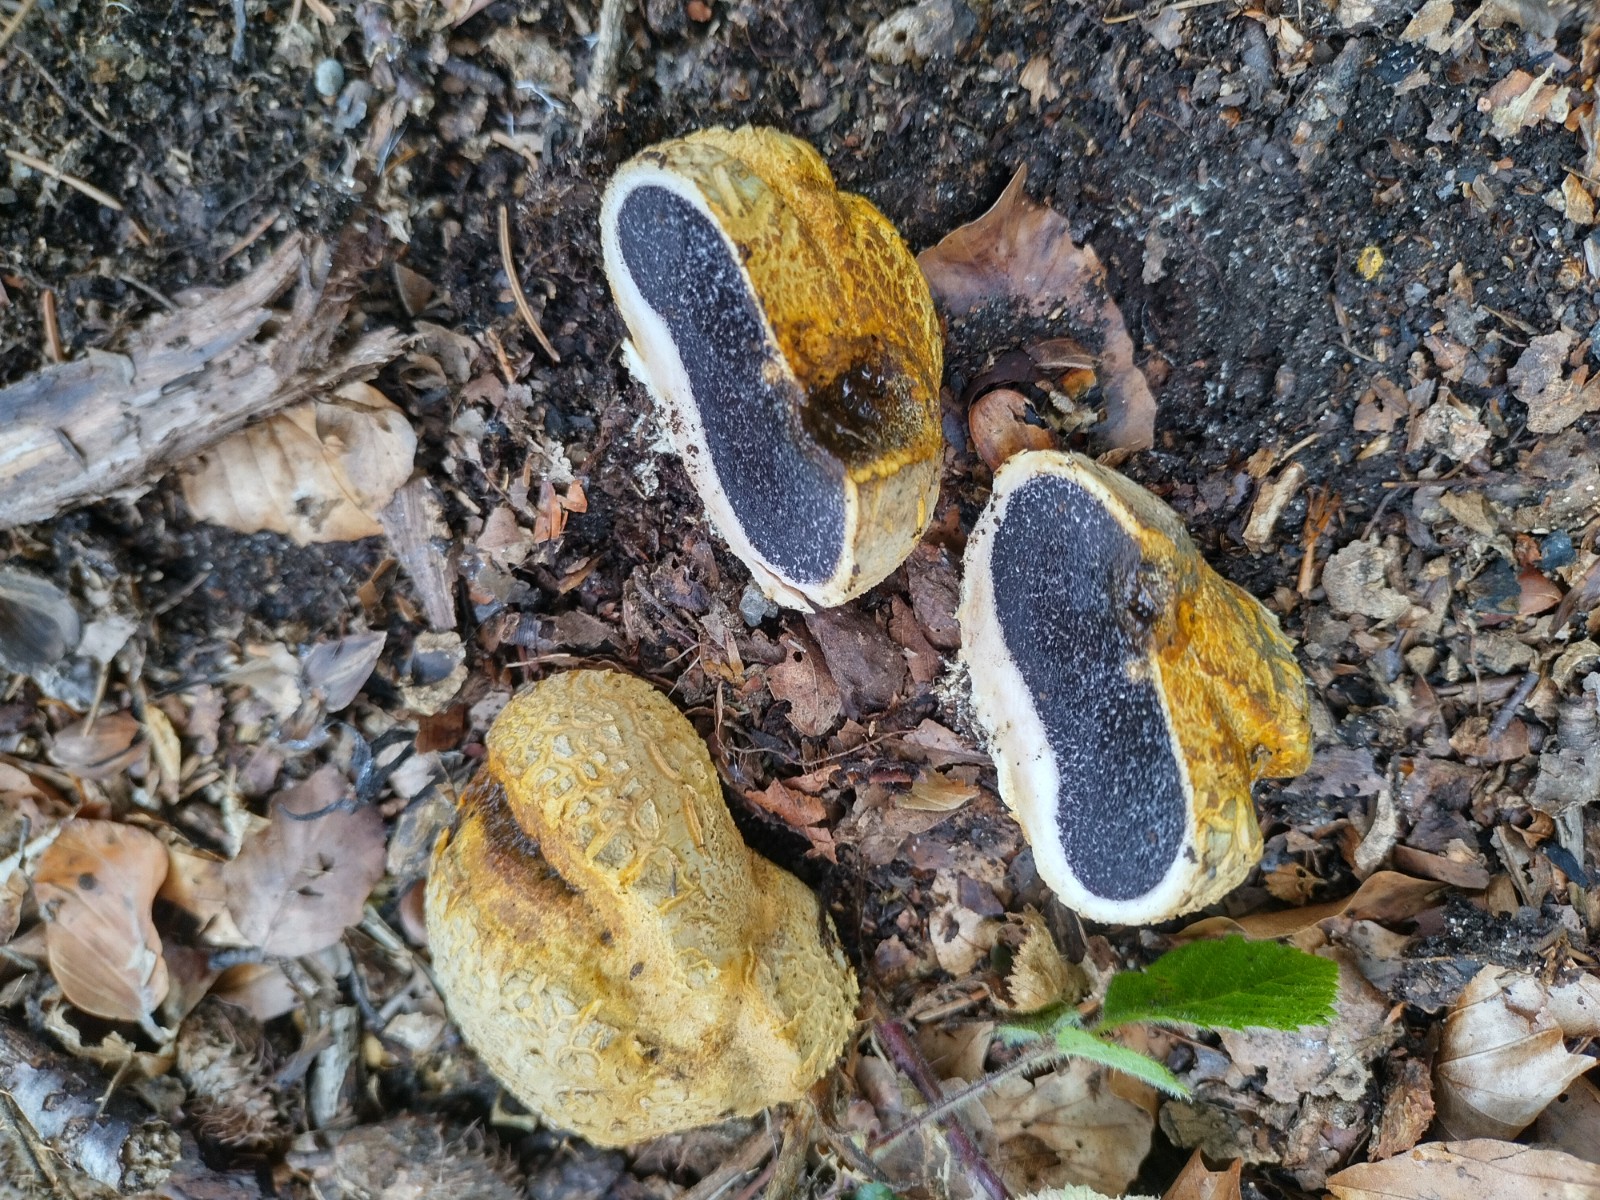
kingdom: Fungi
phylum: Basidiomycota
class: Agaricomycetes
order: Boletales
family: Sclerodermataceae
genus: Scleroderma
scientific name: Scleroderma citrinum
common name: almindelig bruskbold
